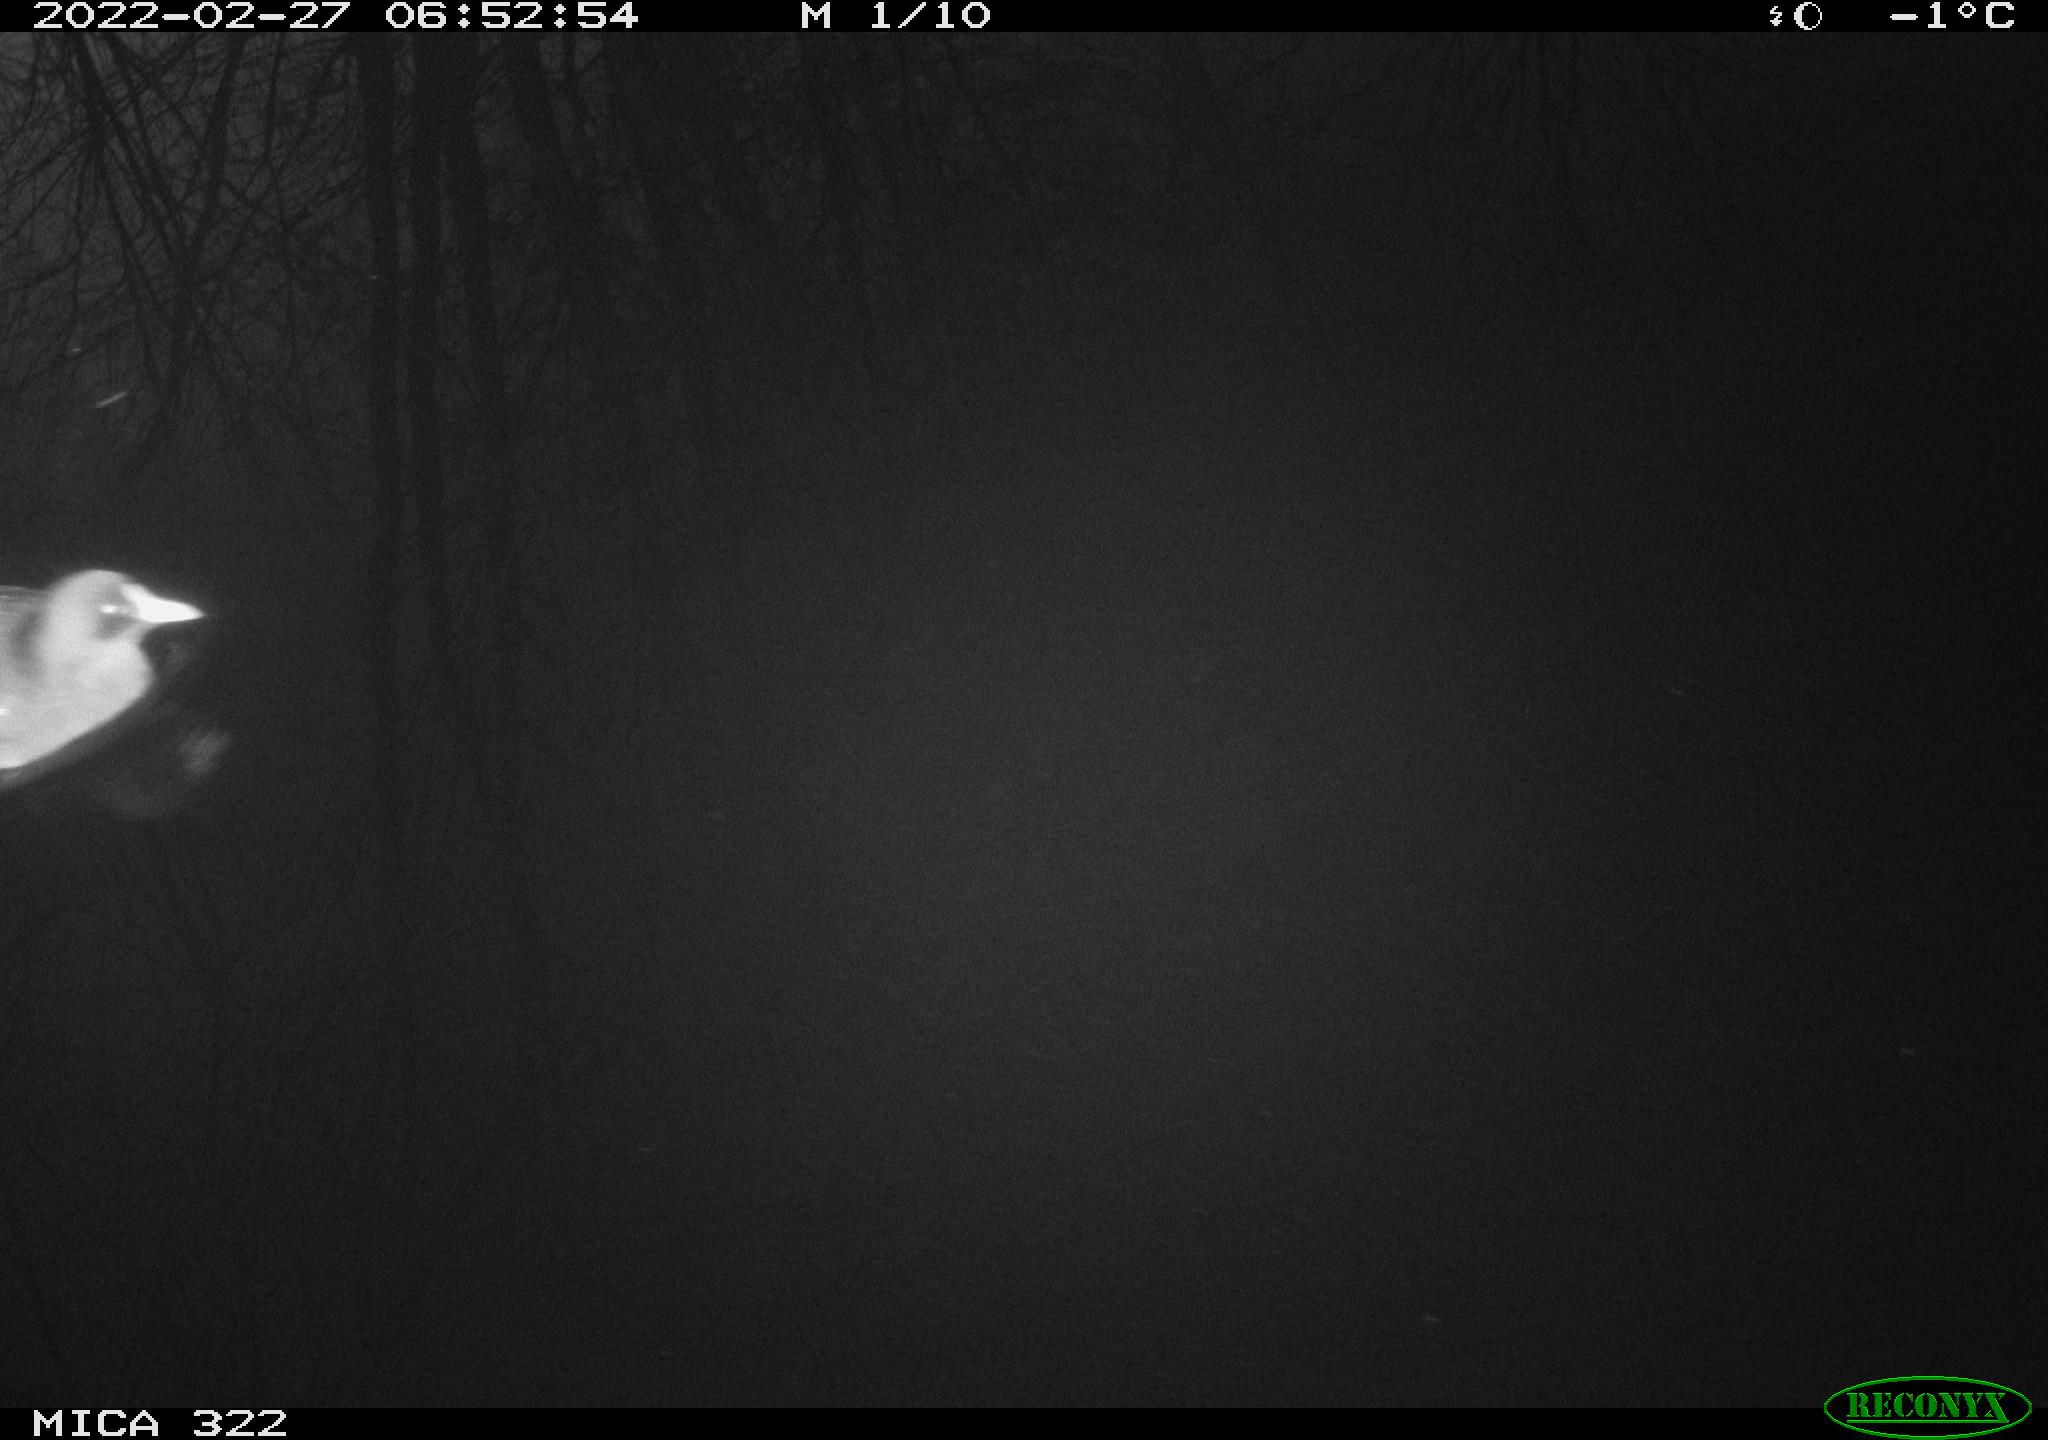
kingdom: Animalia
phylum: Chordata
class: Aves
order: Gruiformes
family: Rallidae
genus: Gallinula
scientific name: Gallinula chloropus
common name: Common moorhen
